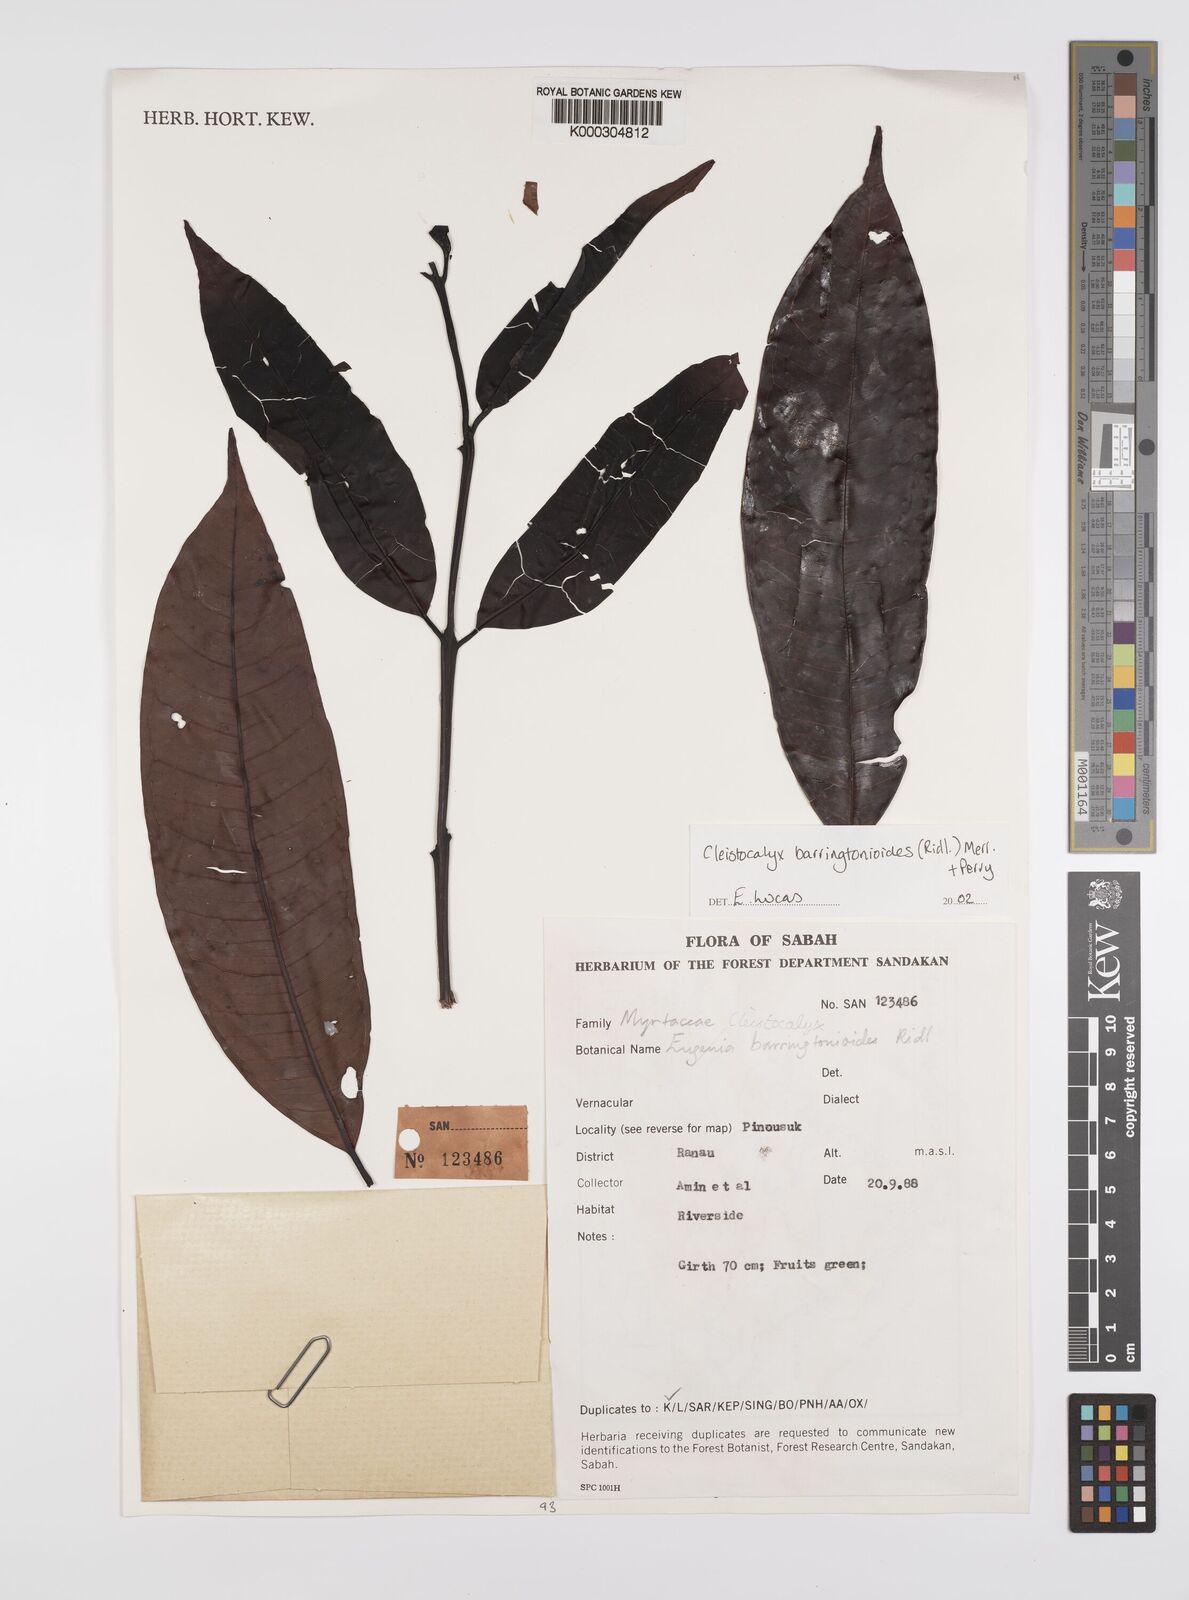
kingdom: Plantae
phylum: Tracheophyta
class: Magnoliopsida
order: Myrtales
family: Myrtaceae
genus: Syzygium
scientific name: Syzygium barringtonioides
